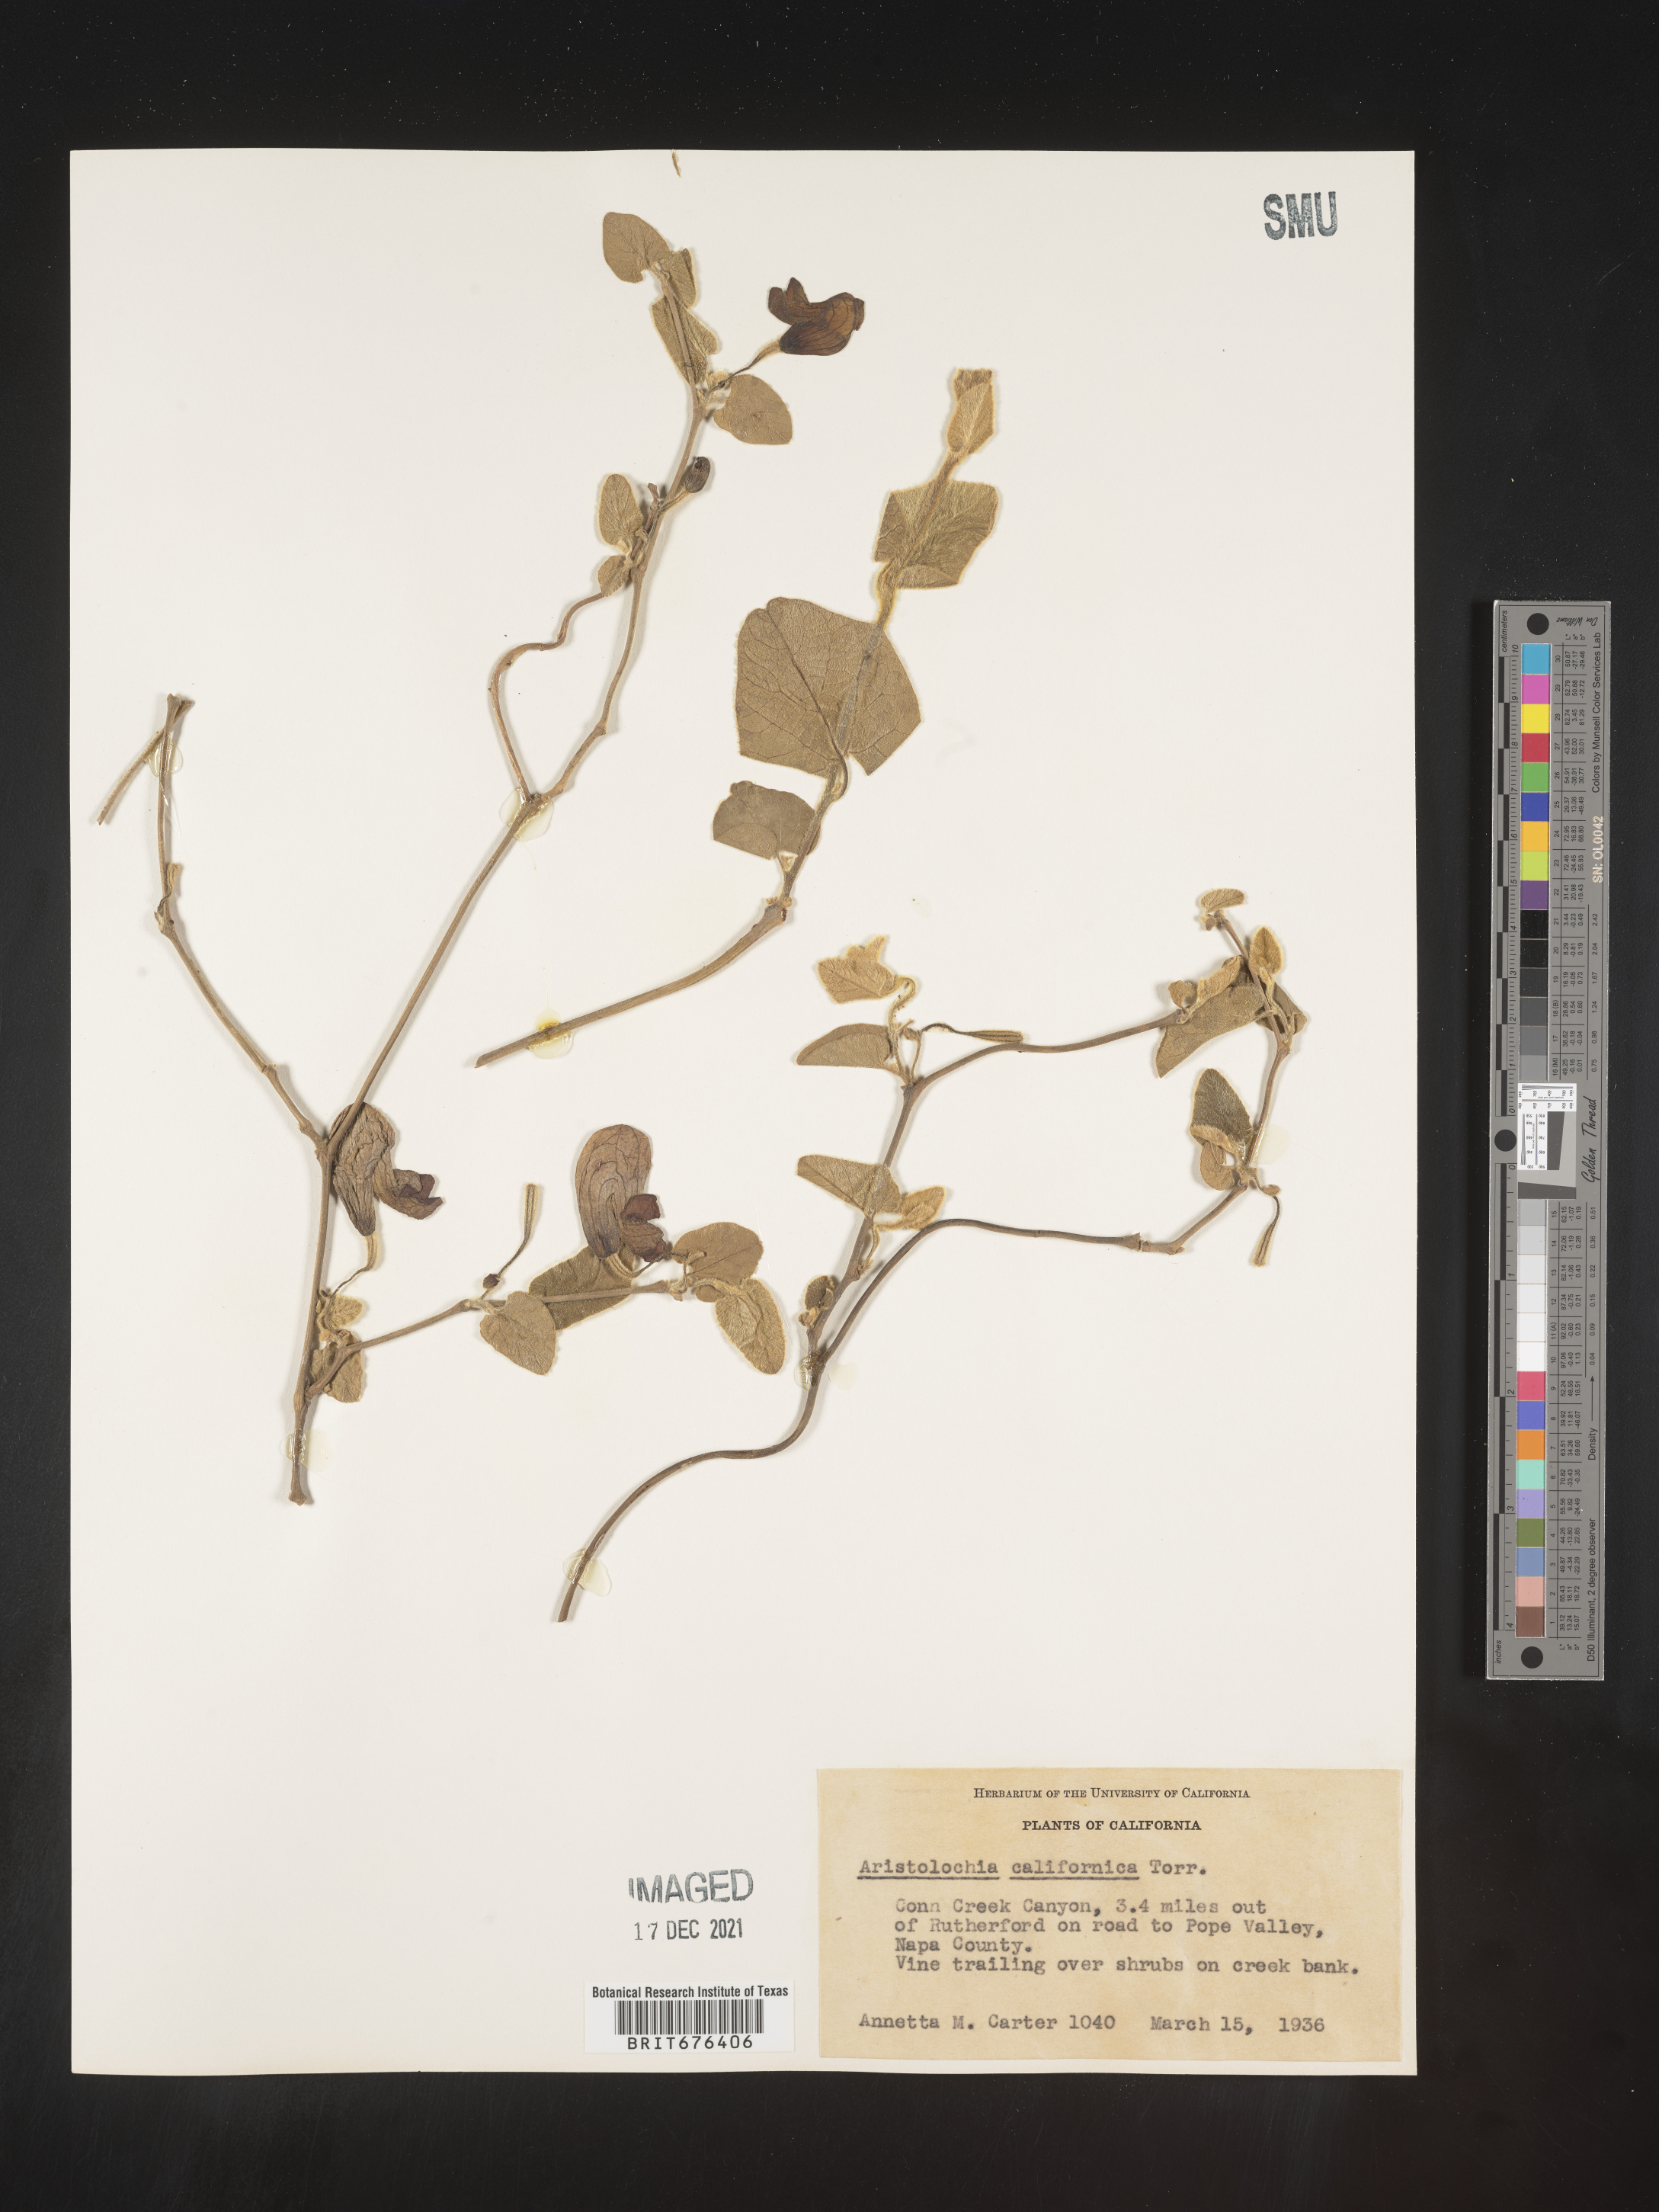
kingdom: Plantae
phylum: Tracheophyta
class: Magnoliopsida
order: Piperales
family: Aristolochiaceae
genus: Aristolochia
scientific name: Aristolochia
